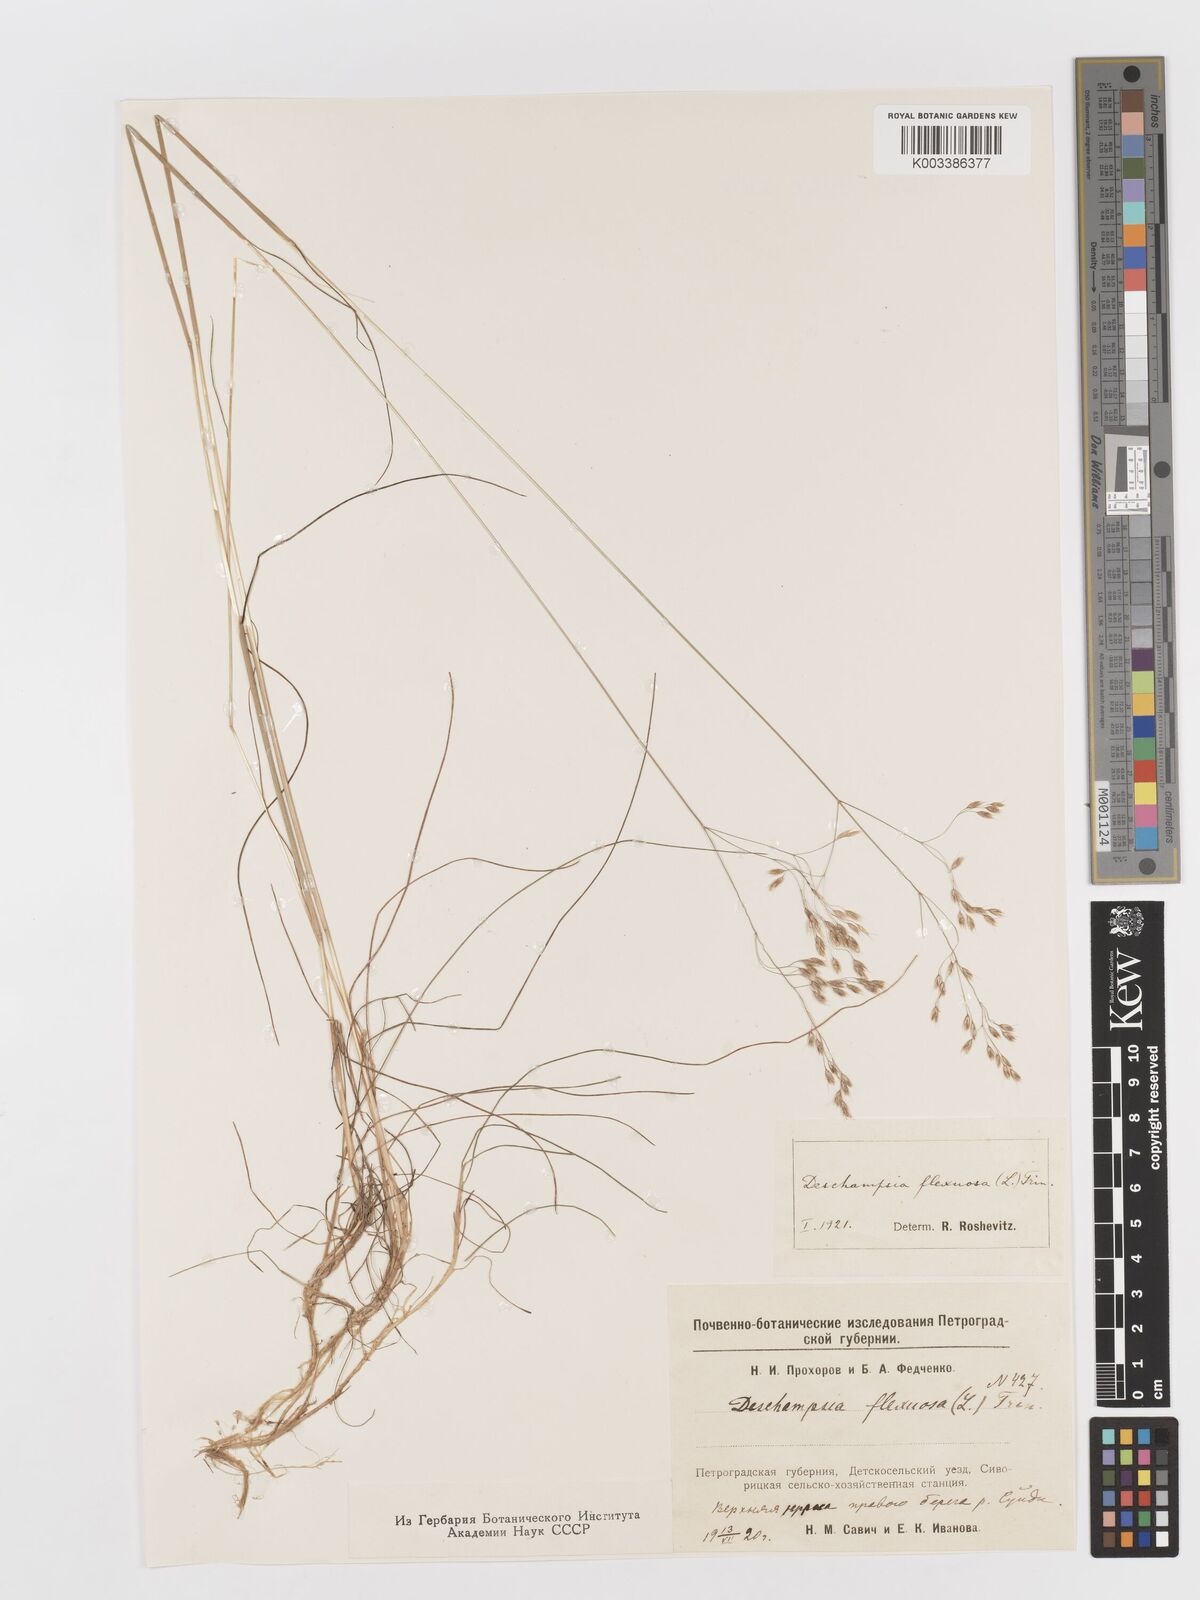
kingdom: Plantae
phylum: Tracheophyta
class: Liliopsida
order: Poales
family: Poaceae
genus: Avenella
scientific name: Avenella flexuosa
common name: Wavy hairgrass
